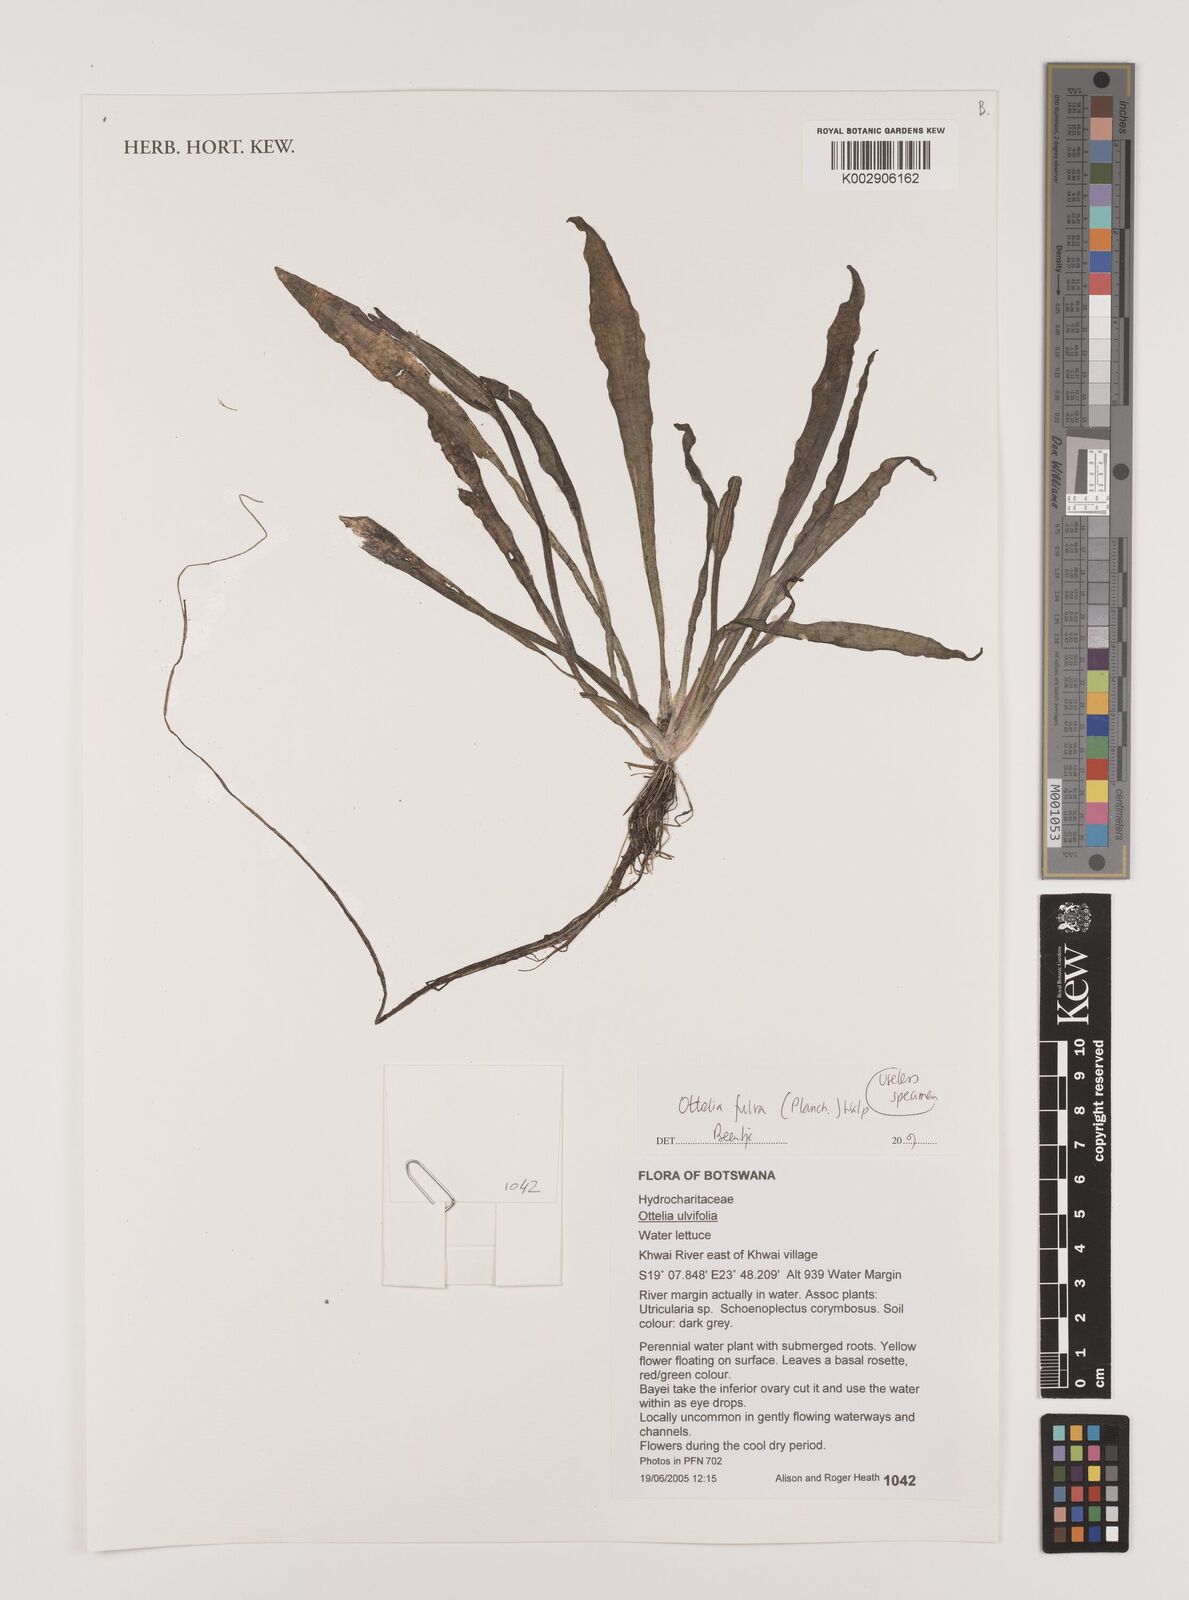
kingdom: Plantae
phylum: Tracheophyta
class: Liliopsida
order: Alismatales
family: Hydrocharitaceae
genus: Ottelia
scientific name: Ottelia ulvifolia
